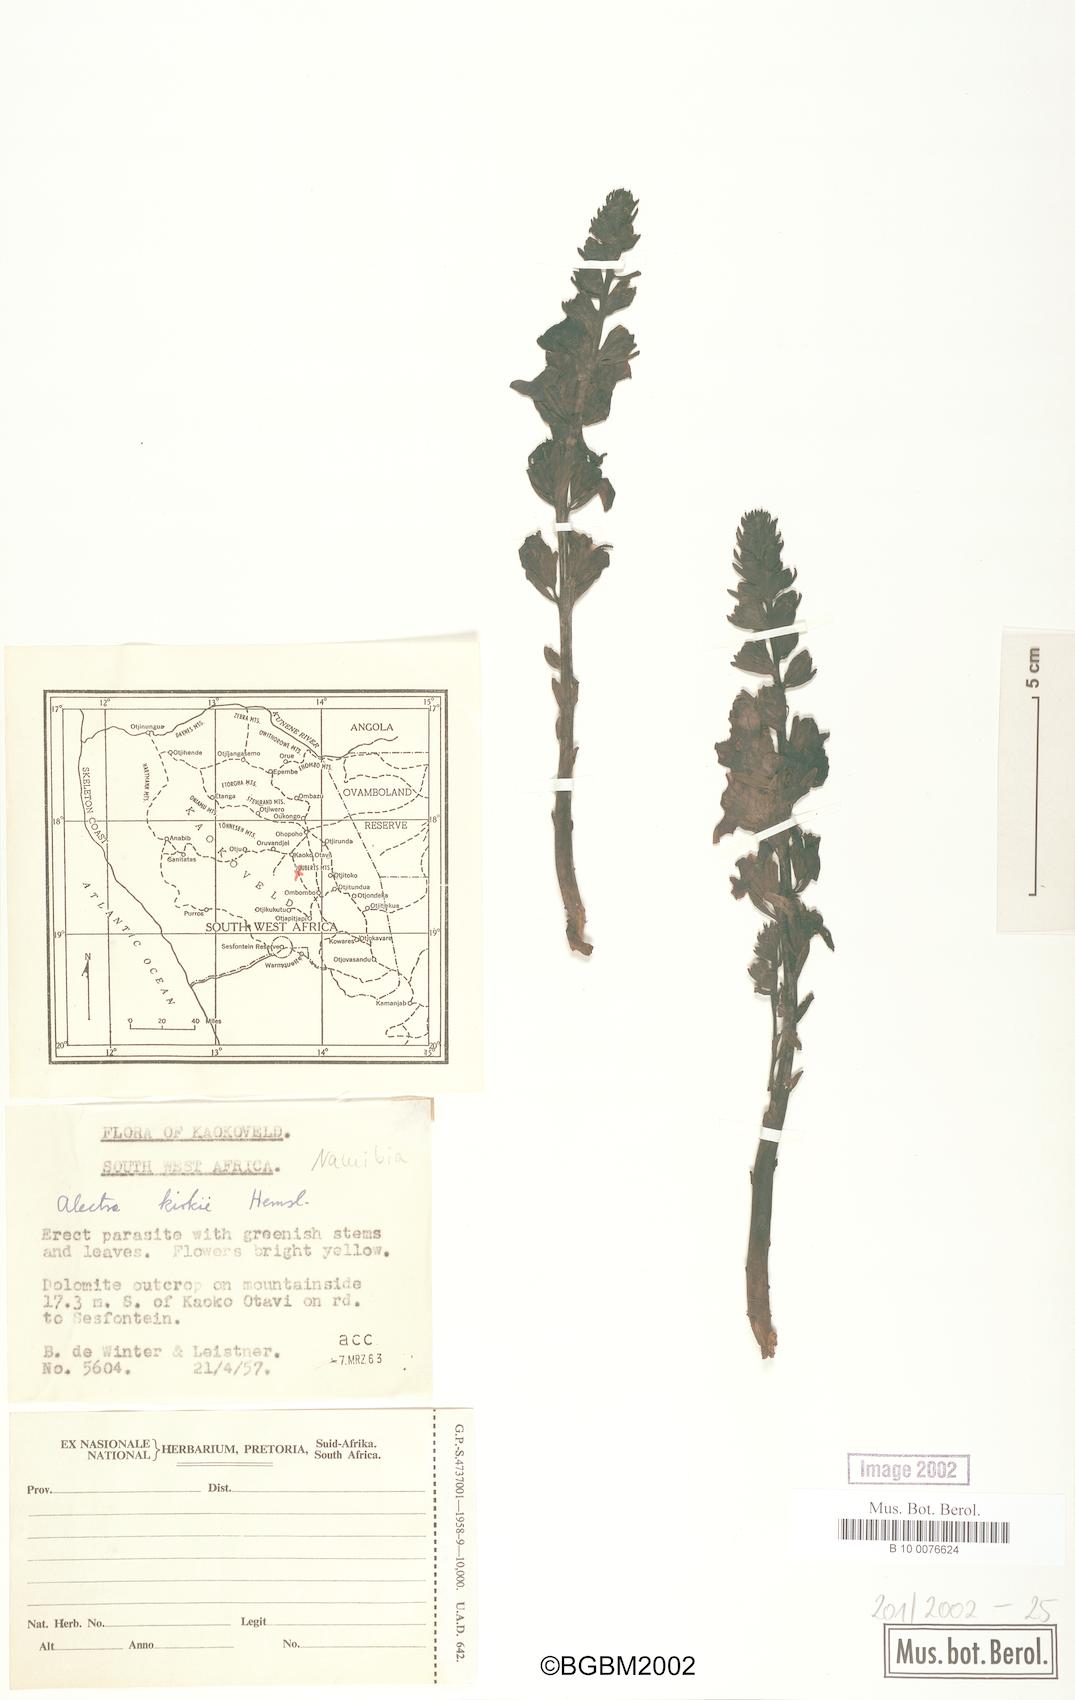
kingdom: Plantae
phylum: Tracheophyta
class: Magnoliopsida
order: Lamiales
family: Orobanchaceae
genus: Alectra
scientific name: Alectra orobanchoides
